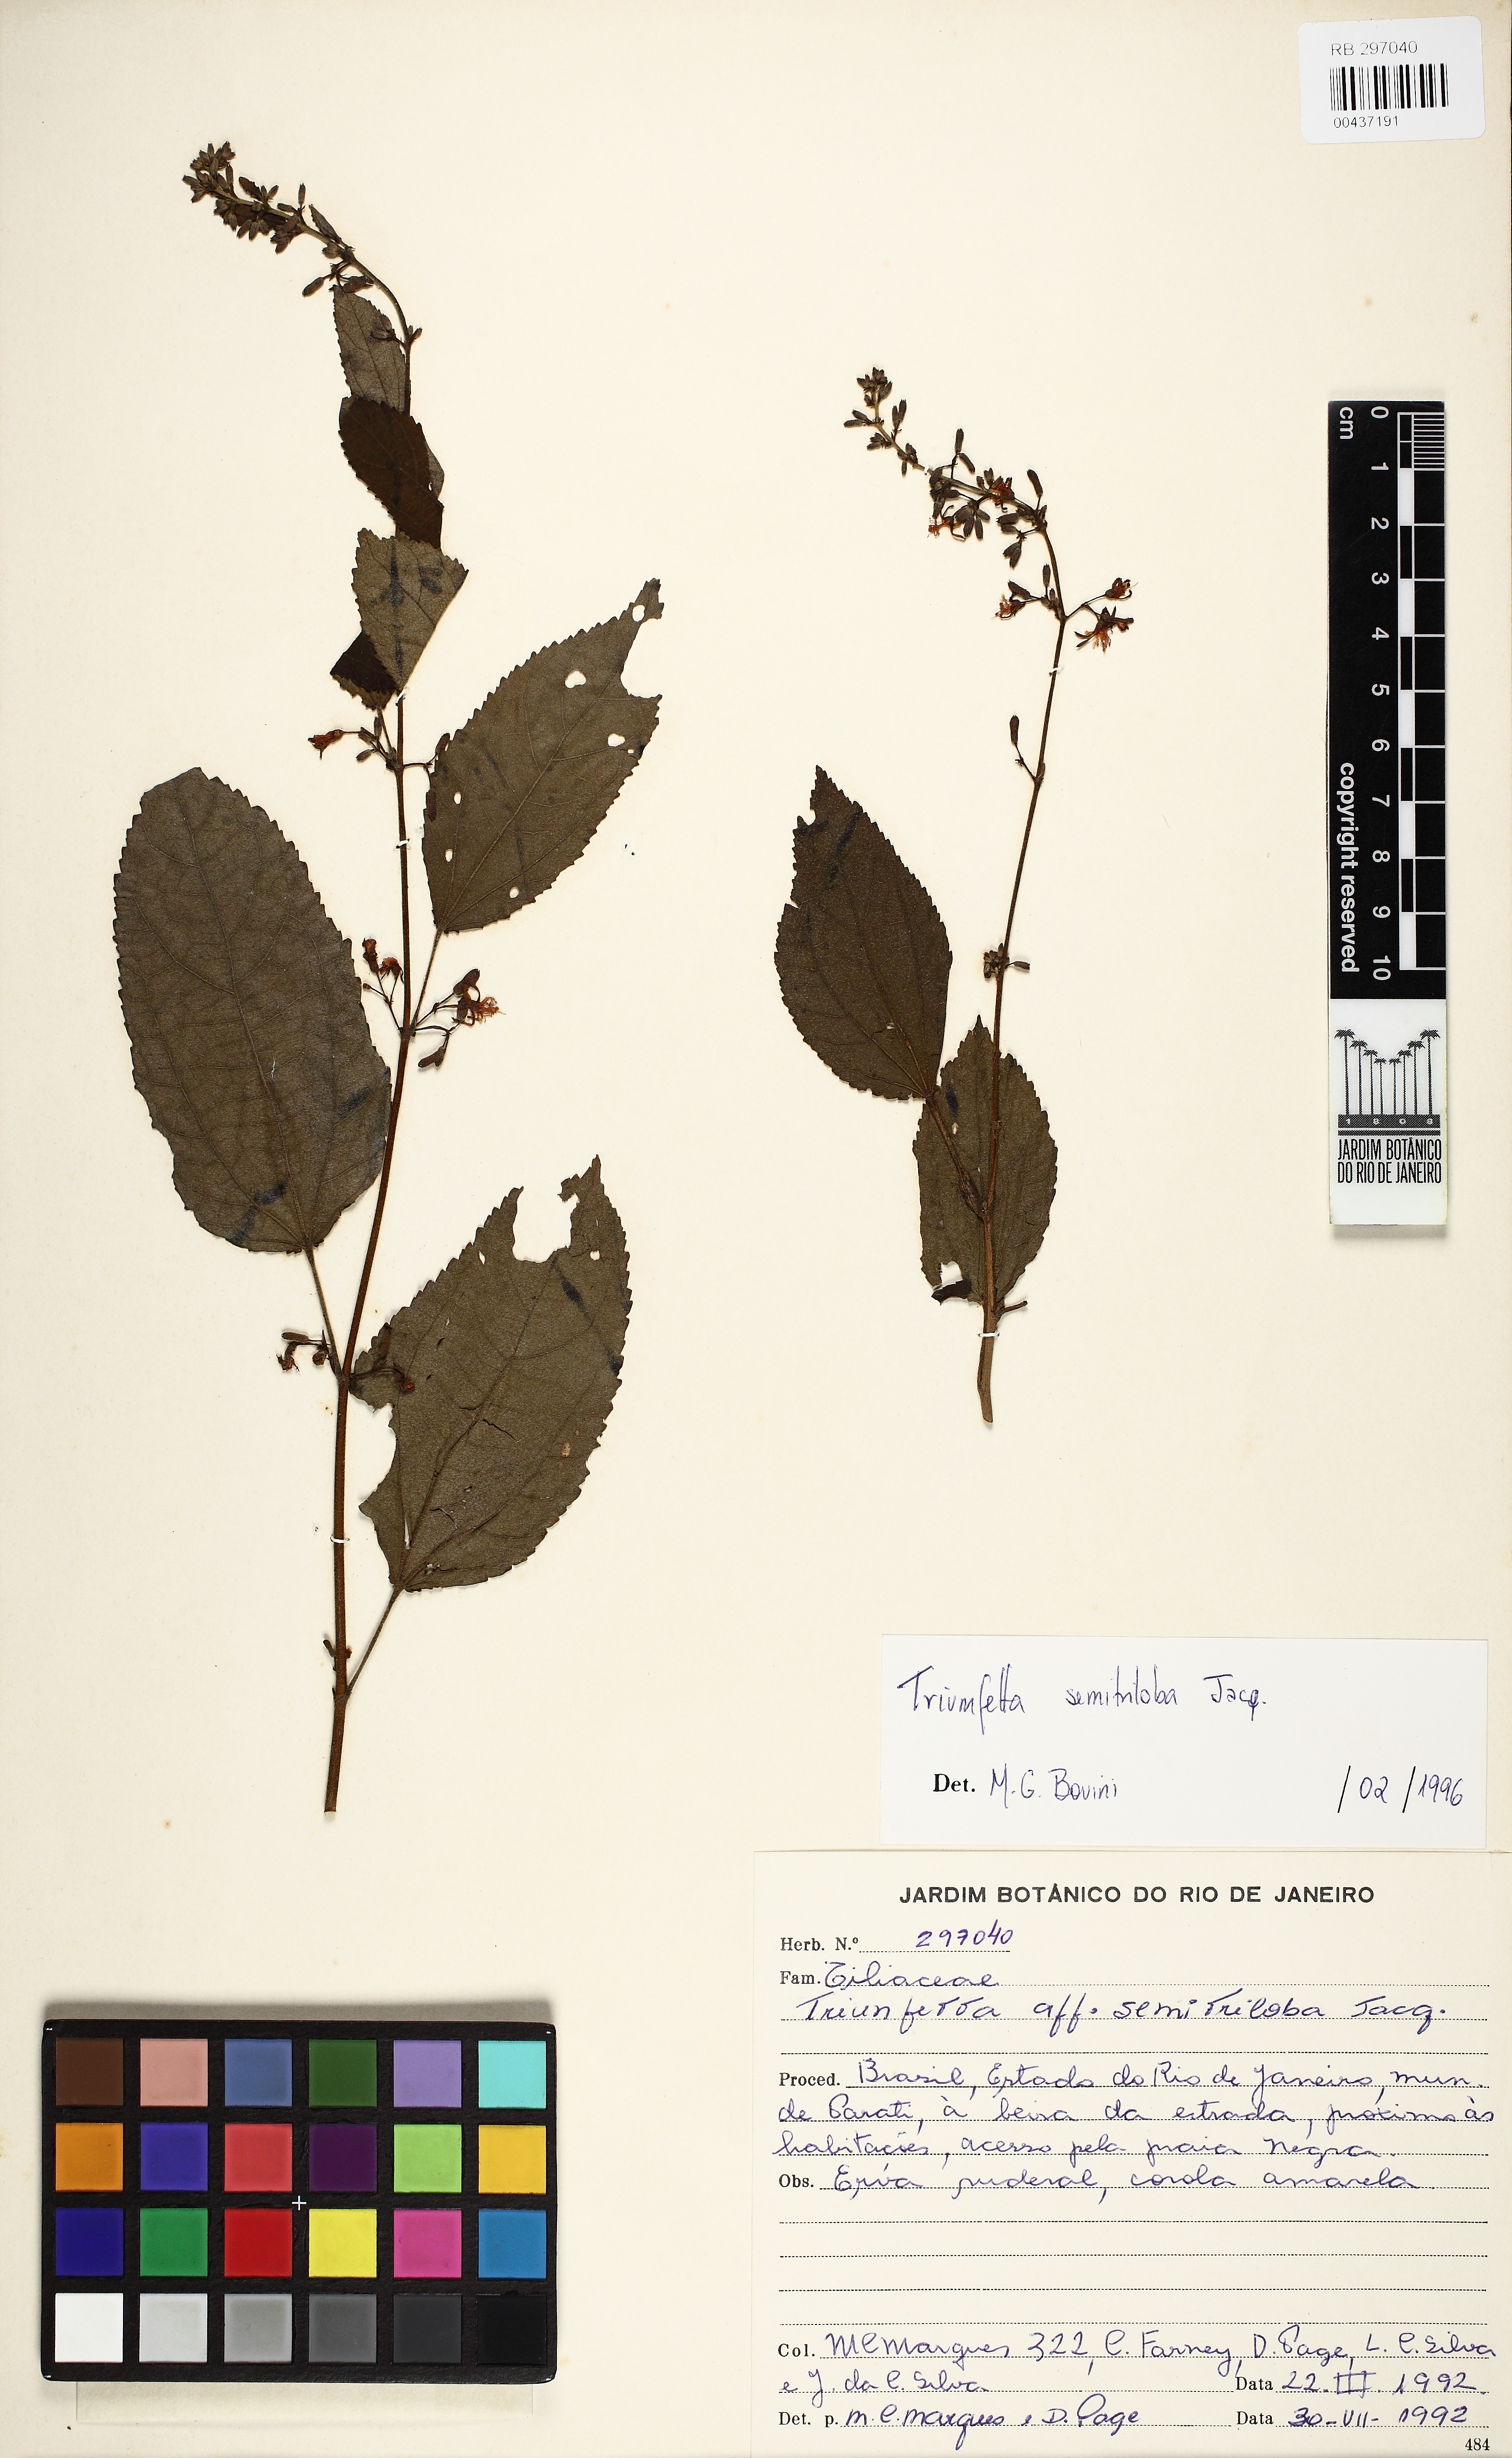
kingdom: Plantae
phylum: Tracheophyta
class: Magnoliopsida
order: Malvales
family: Malvaceae
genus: Triumfetta
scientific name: Triumfetta semitriloba
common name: Sacramento burbark
